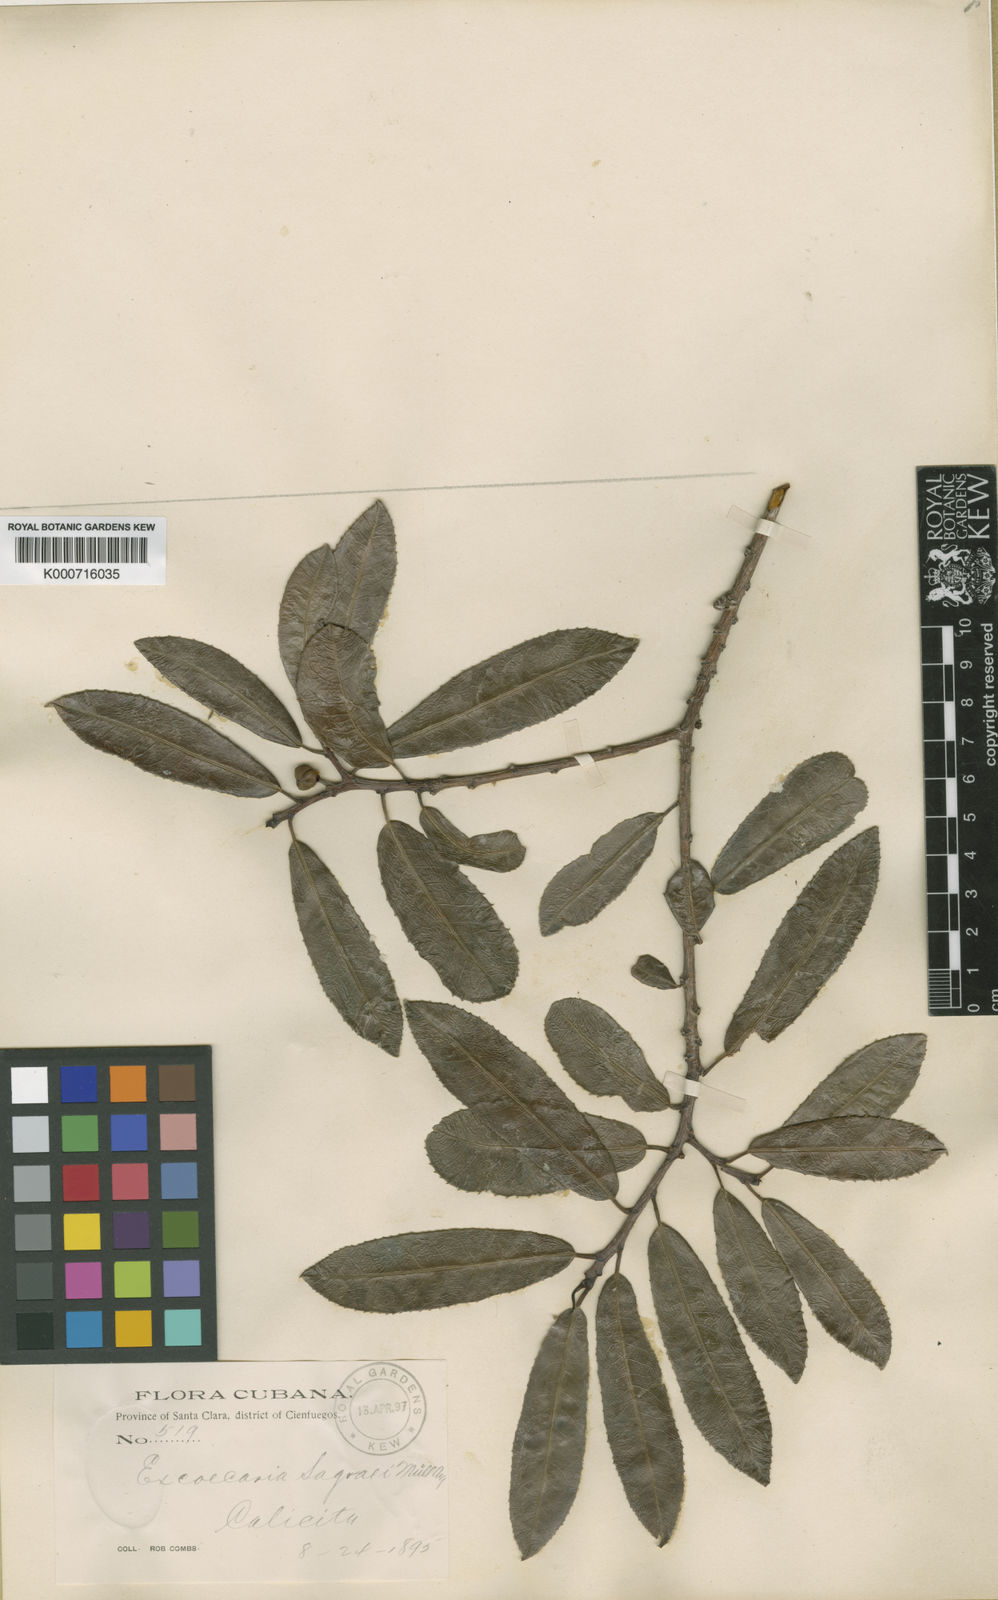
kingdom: Plantae
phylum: Tracheophyta
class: Magnoliopsida
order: Malpighiales
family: Euphorbiaceae
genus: Grimmeodendron
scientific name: Grimmeodendron eglandulosum
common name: Grimm’s tree
